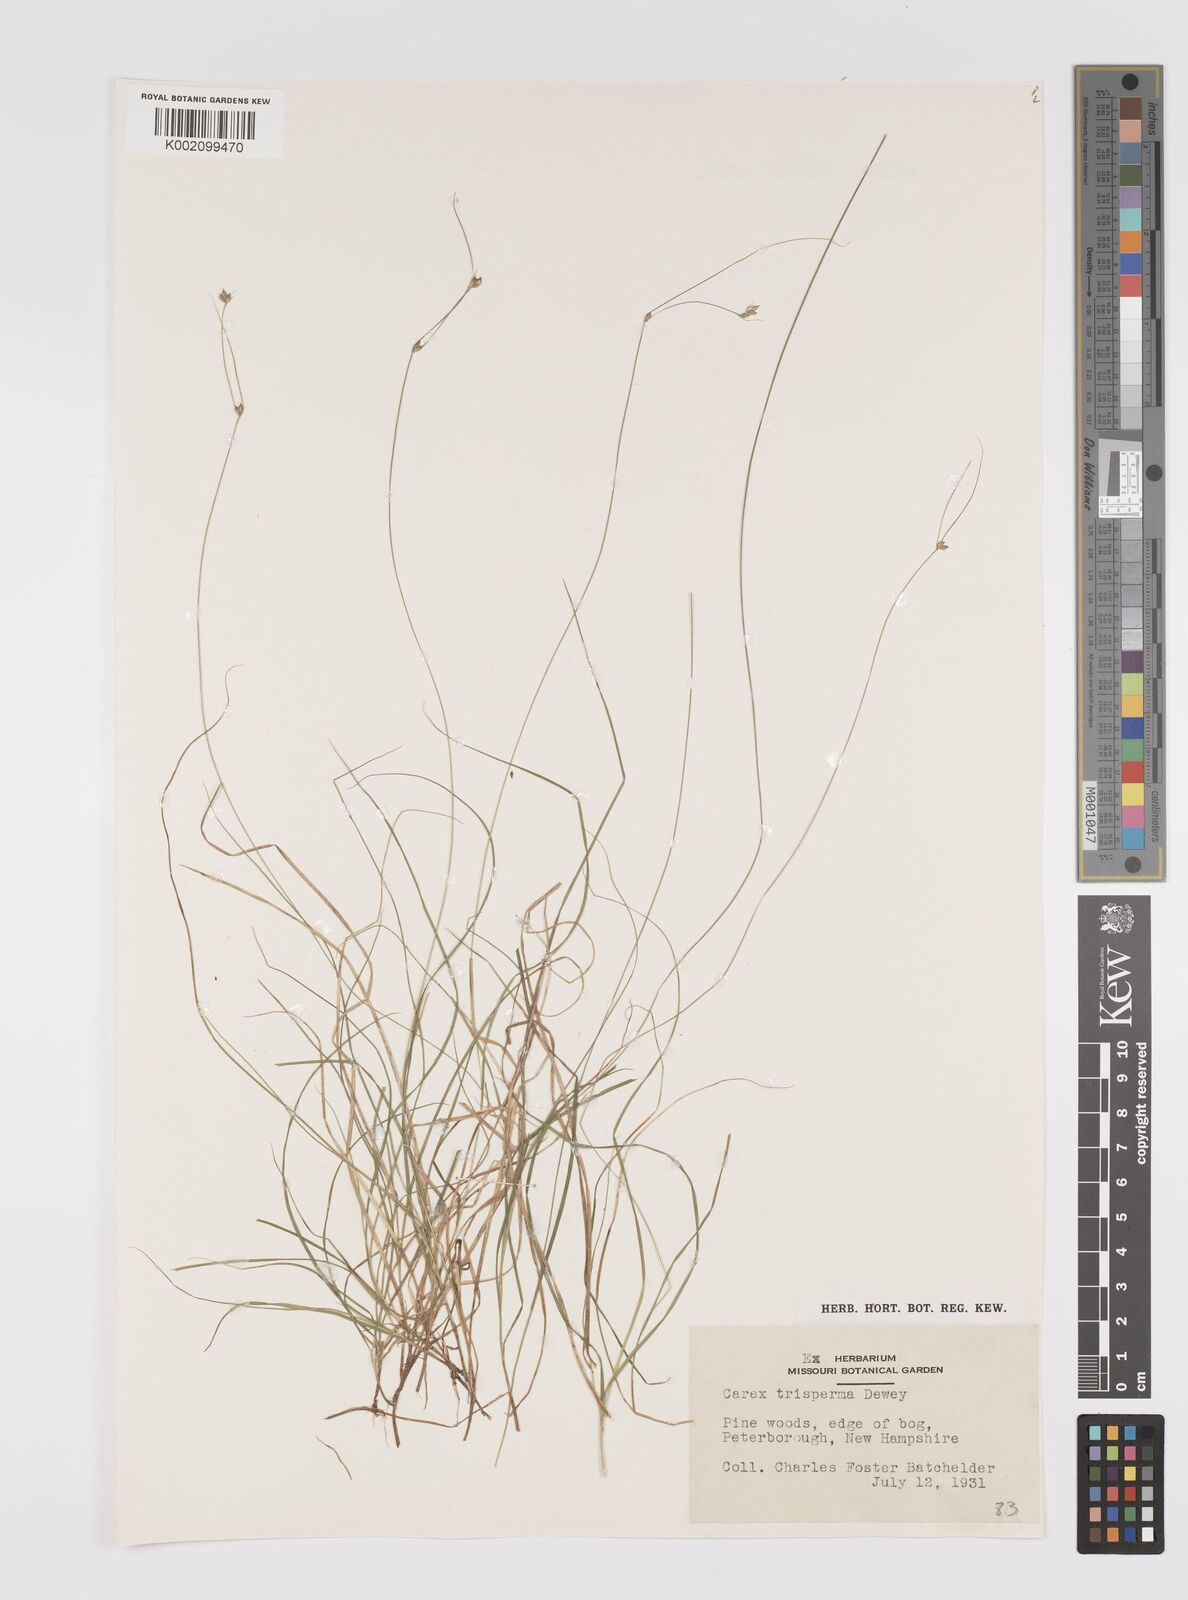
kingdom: Plantae
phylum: Tracheophyta
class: Liliopsida
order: Poales
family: Cyperaceae
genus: Carex
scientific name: Carex trisperma
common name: Three-seeded sedge
